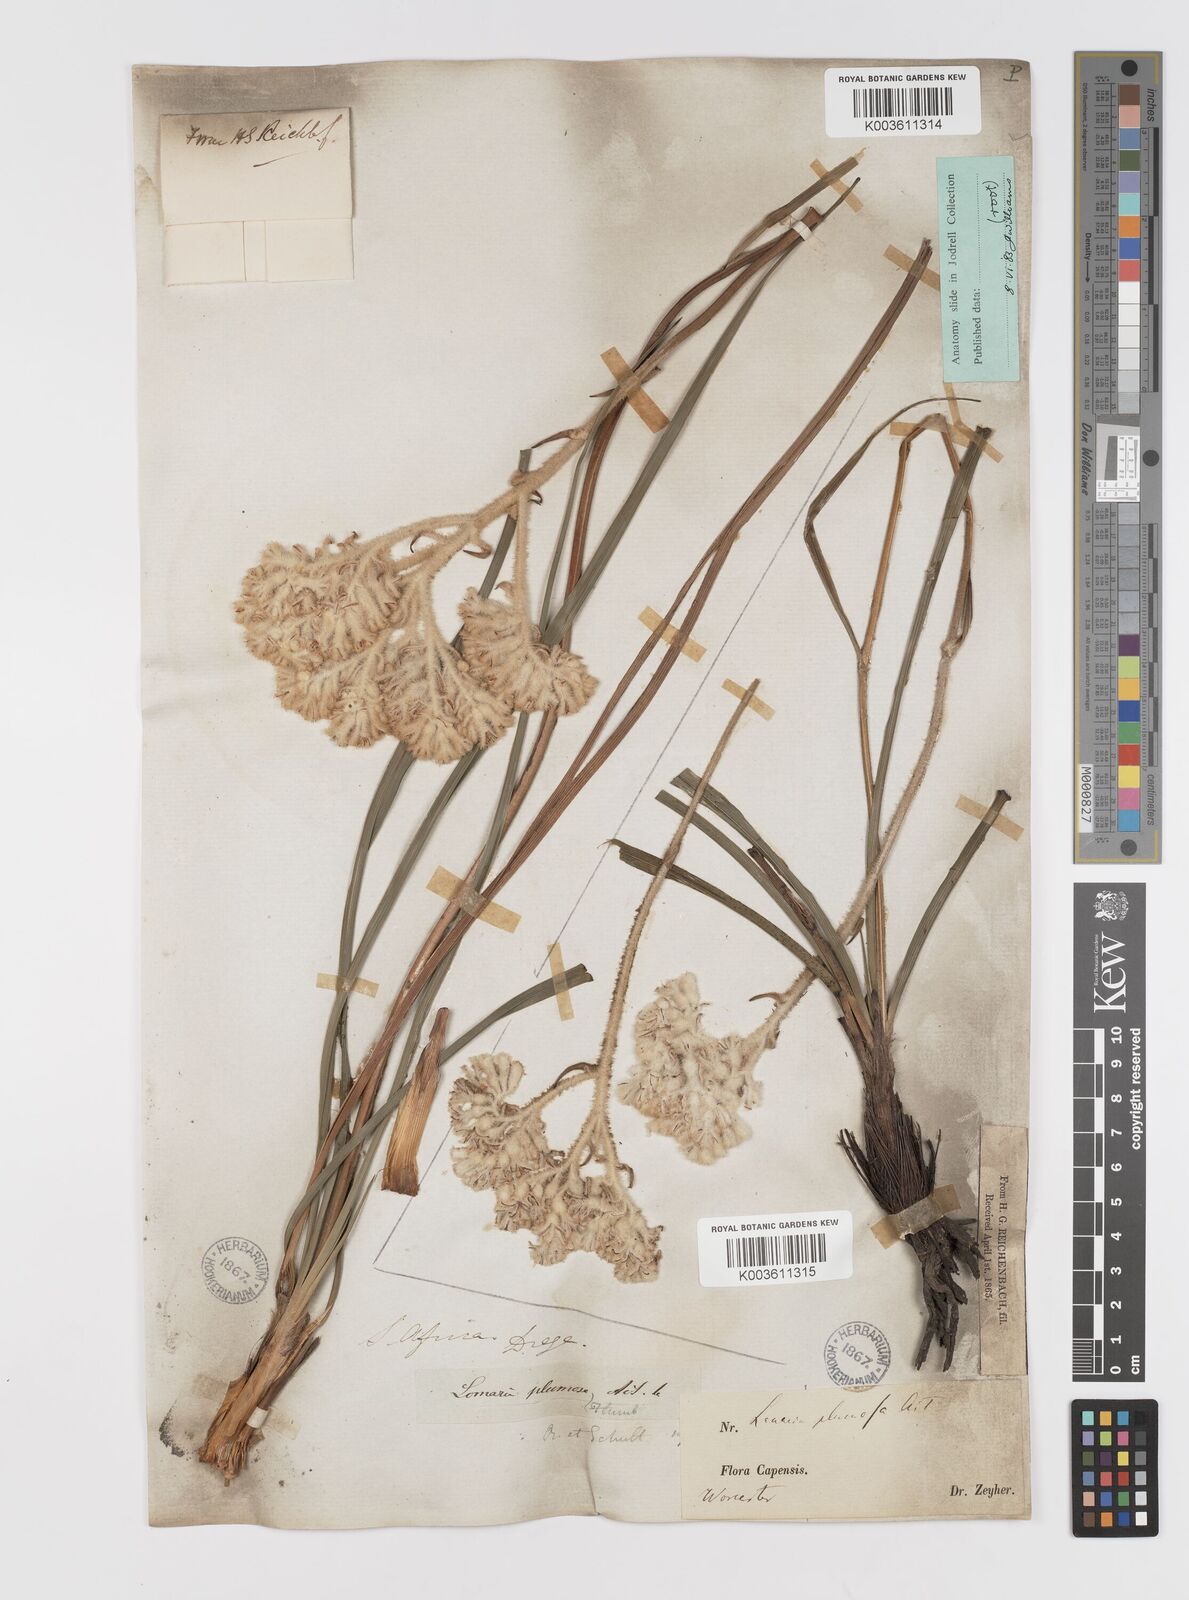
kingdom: Plantae
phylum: Tracheophyta
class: Liliopsida
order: Asparagales
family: Lanariaceae
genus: Lanaria
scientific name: Lanaria lanata
